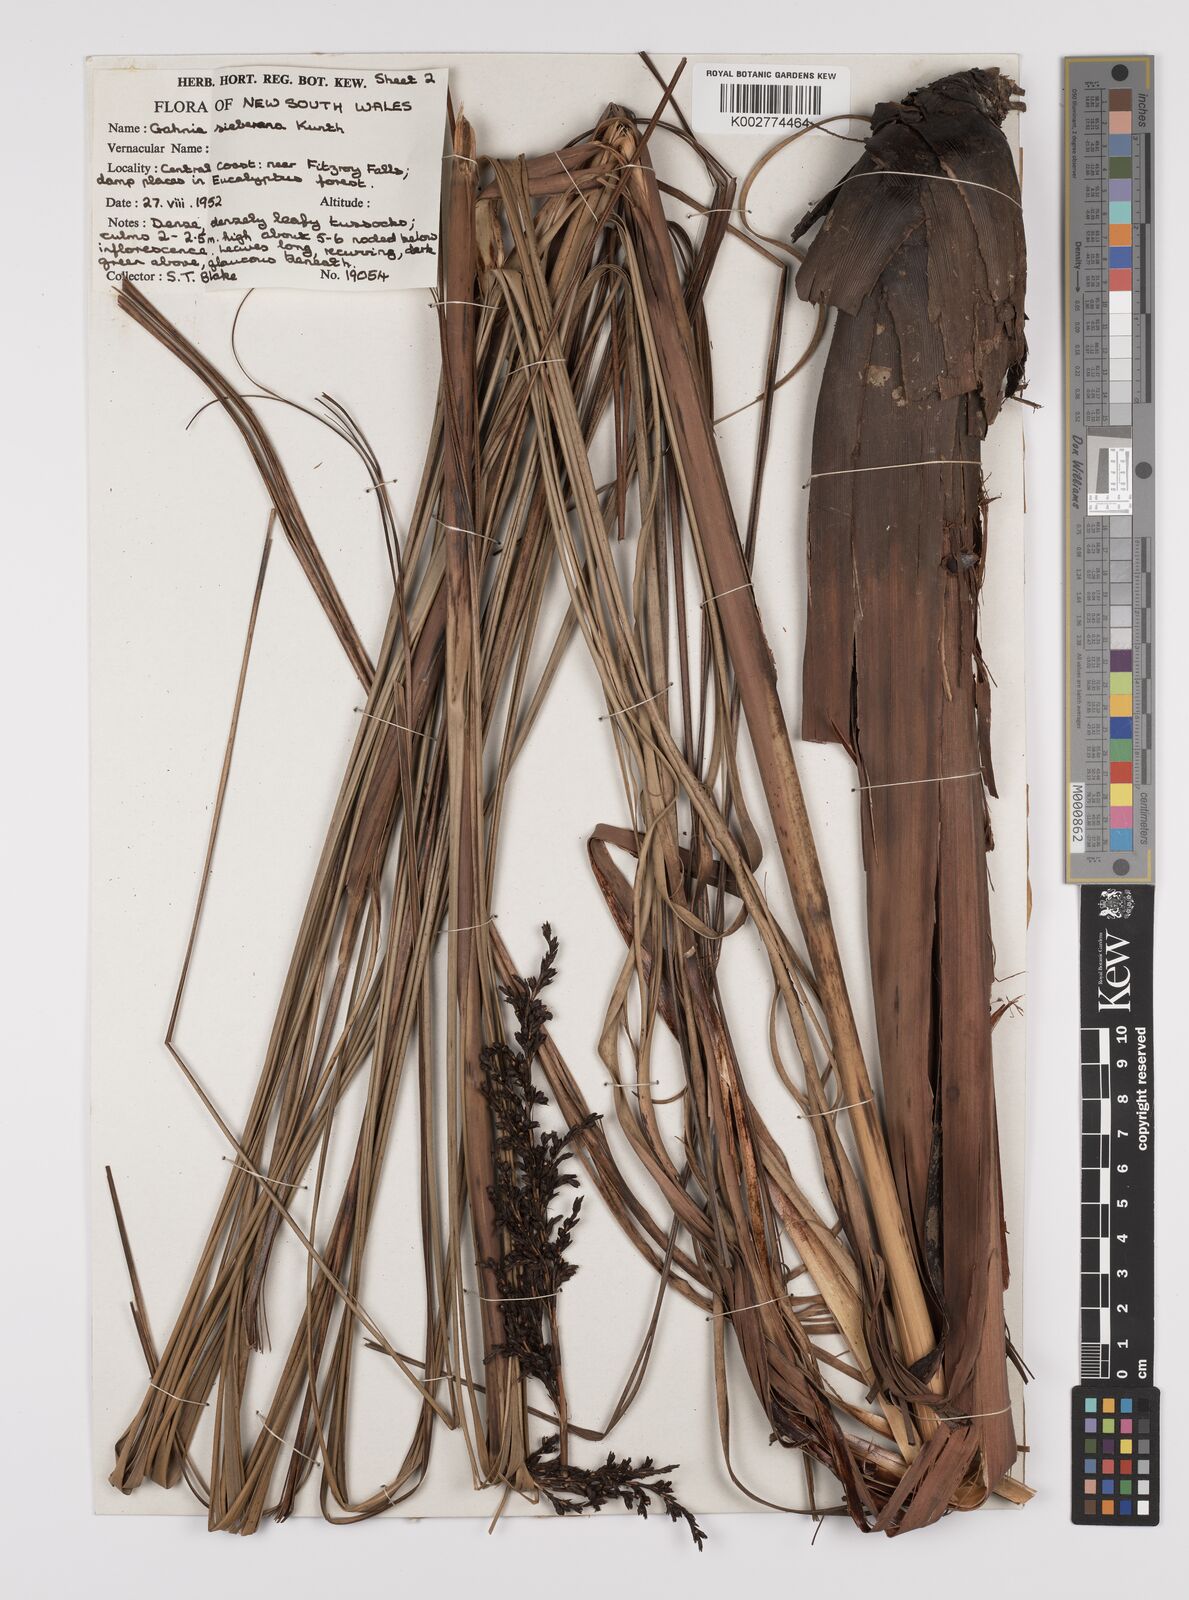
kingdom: Plantae
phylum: Tracheophyta
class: Liliopsida
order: Poales
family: Cyperaceae
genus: Gahnia
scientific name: Gahnia sieberiana
